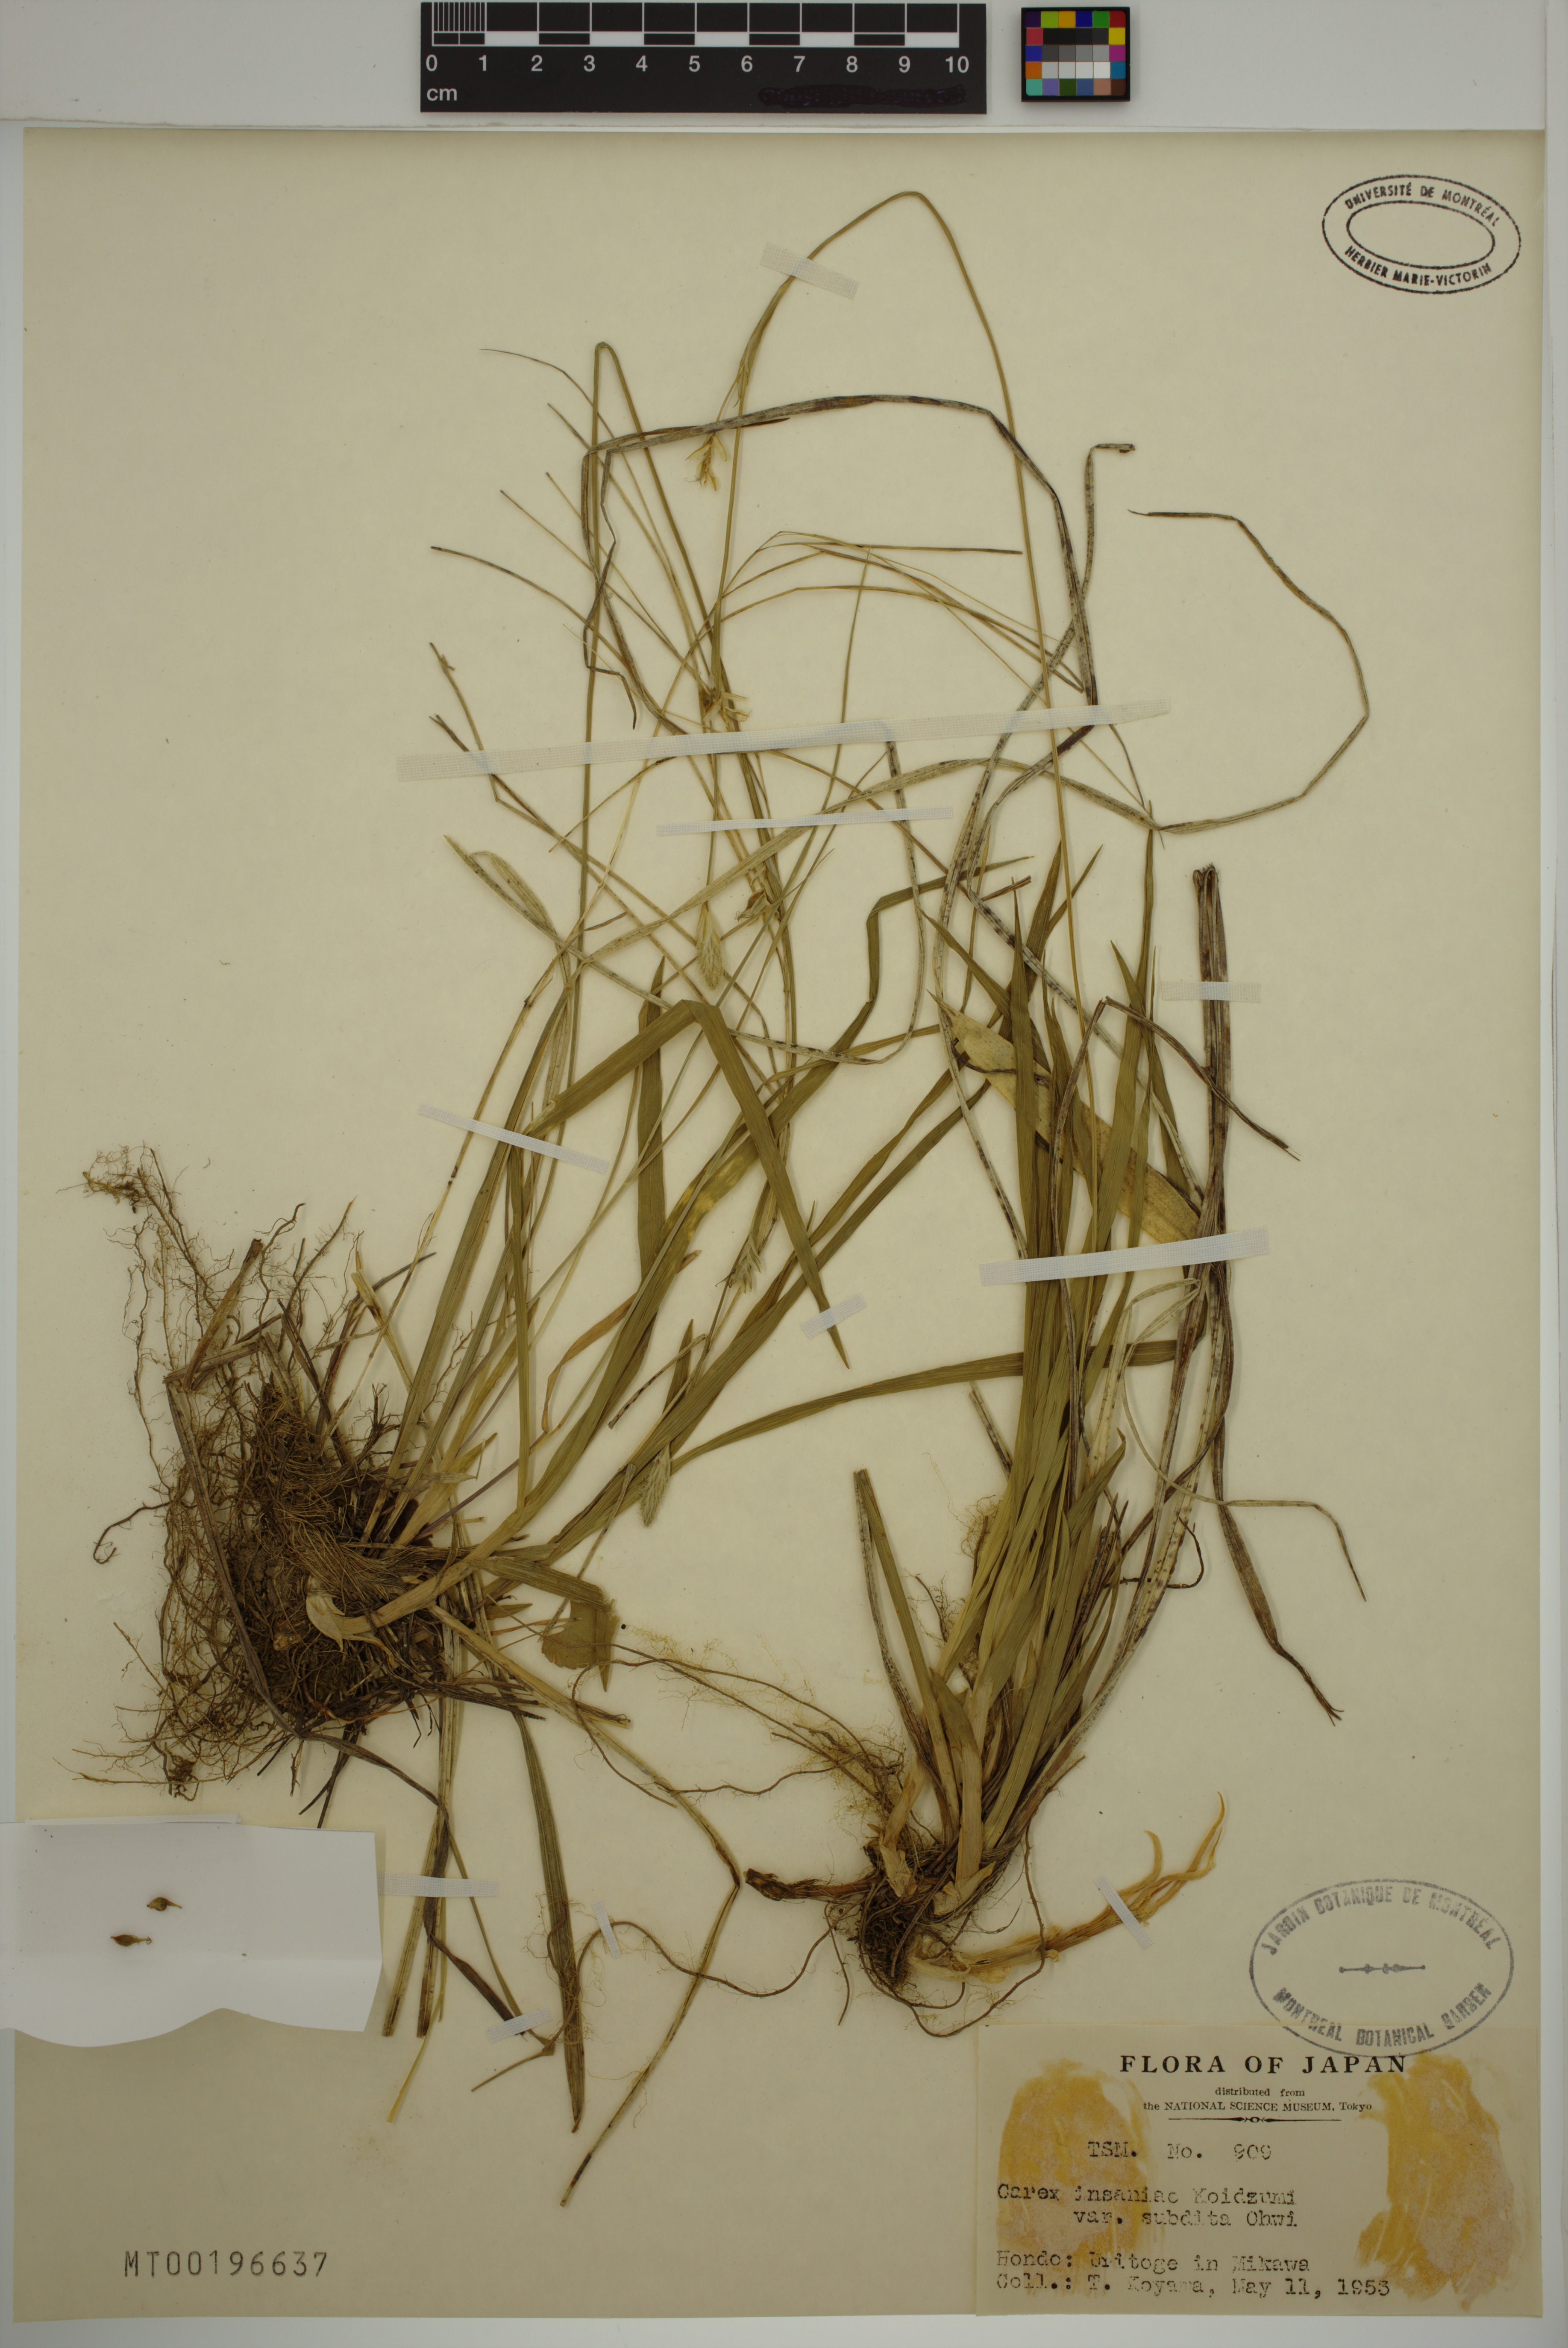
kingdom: Plantae
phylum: Tracheophyta
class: Liliopsida
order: Poales
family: Cyperaceae
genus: Carex
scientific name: Carex insaniae
